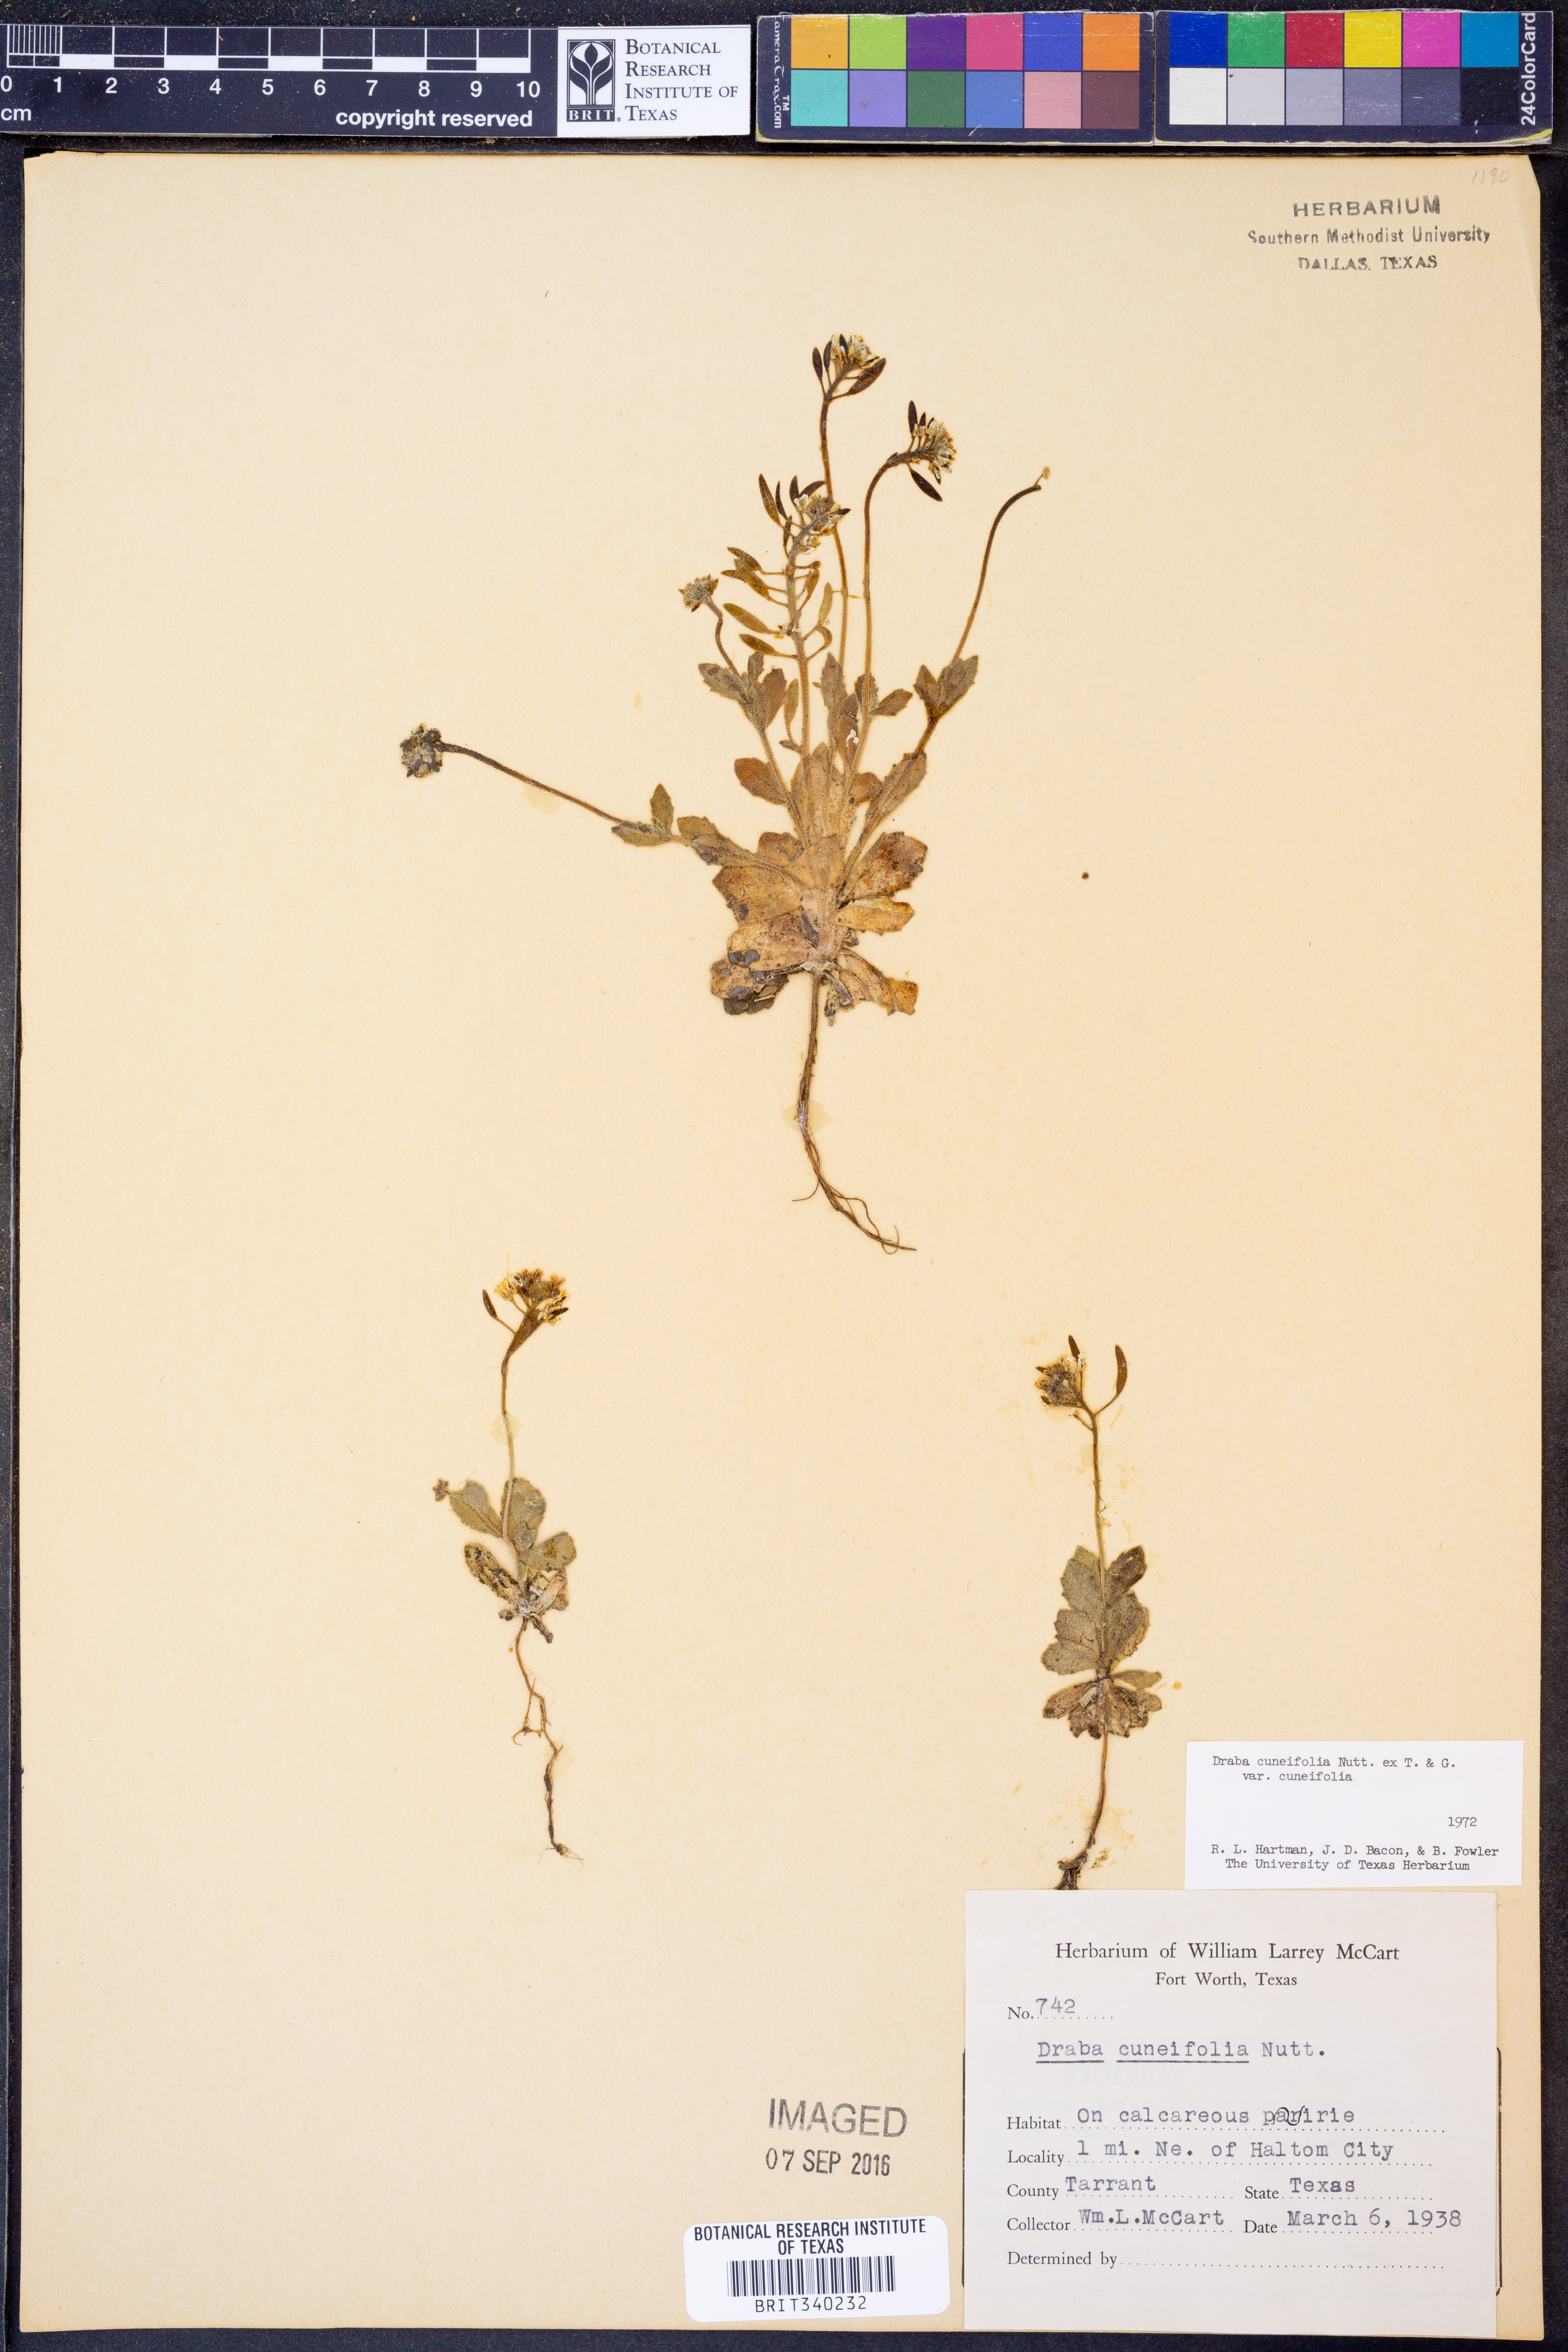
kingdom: Plantae
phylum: Tracheophyta
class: Magnoliopsida
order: Brassicales
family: Brassicaceae
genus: Tomostima
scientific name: Tomostima cuneifolia
